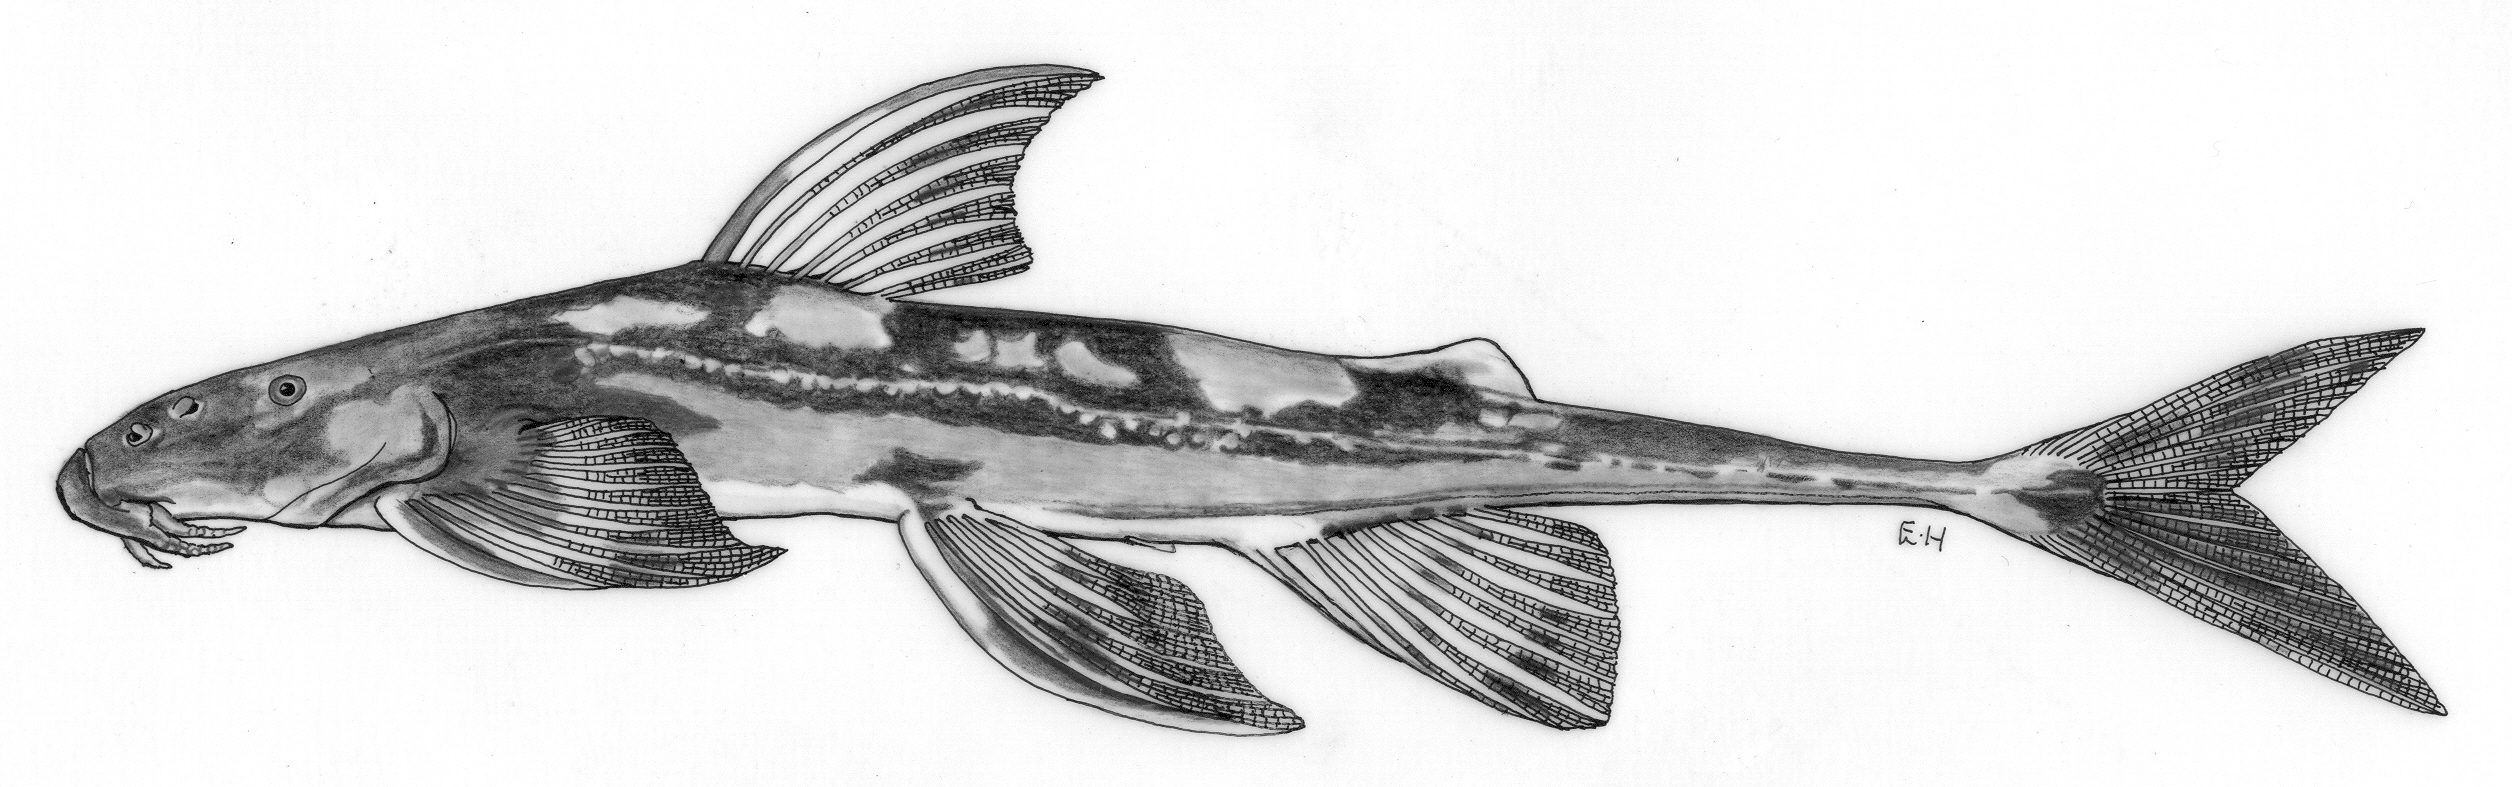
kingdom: Animalia
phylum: Chordata
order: Siluriformes
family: Amphiliidae
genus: Doumea
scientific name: Doumea sanaga
